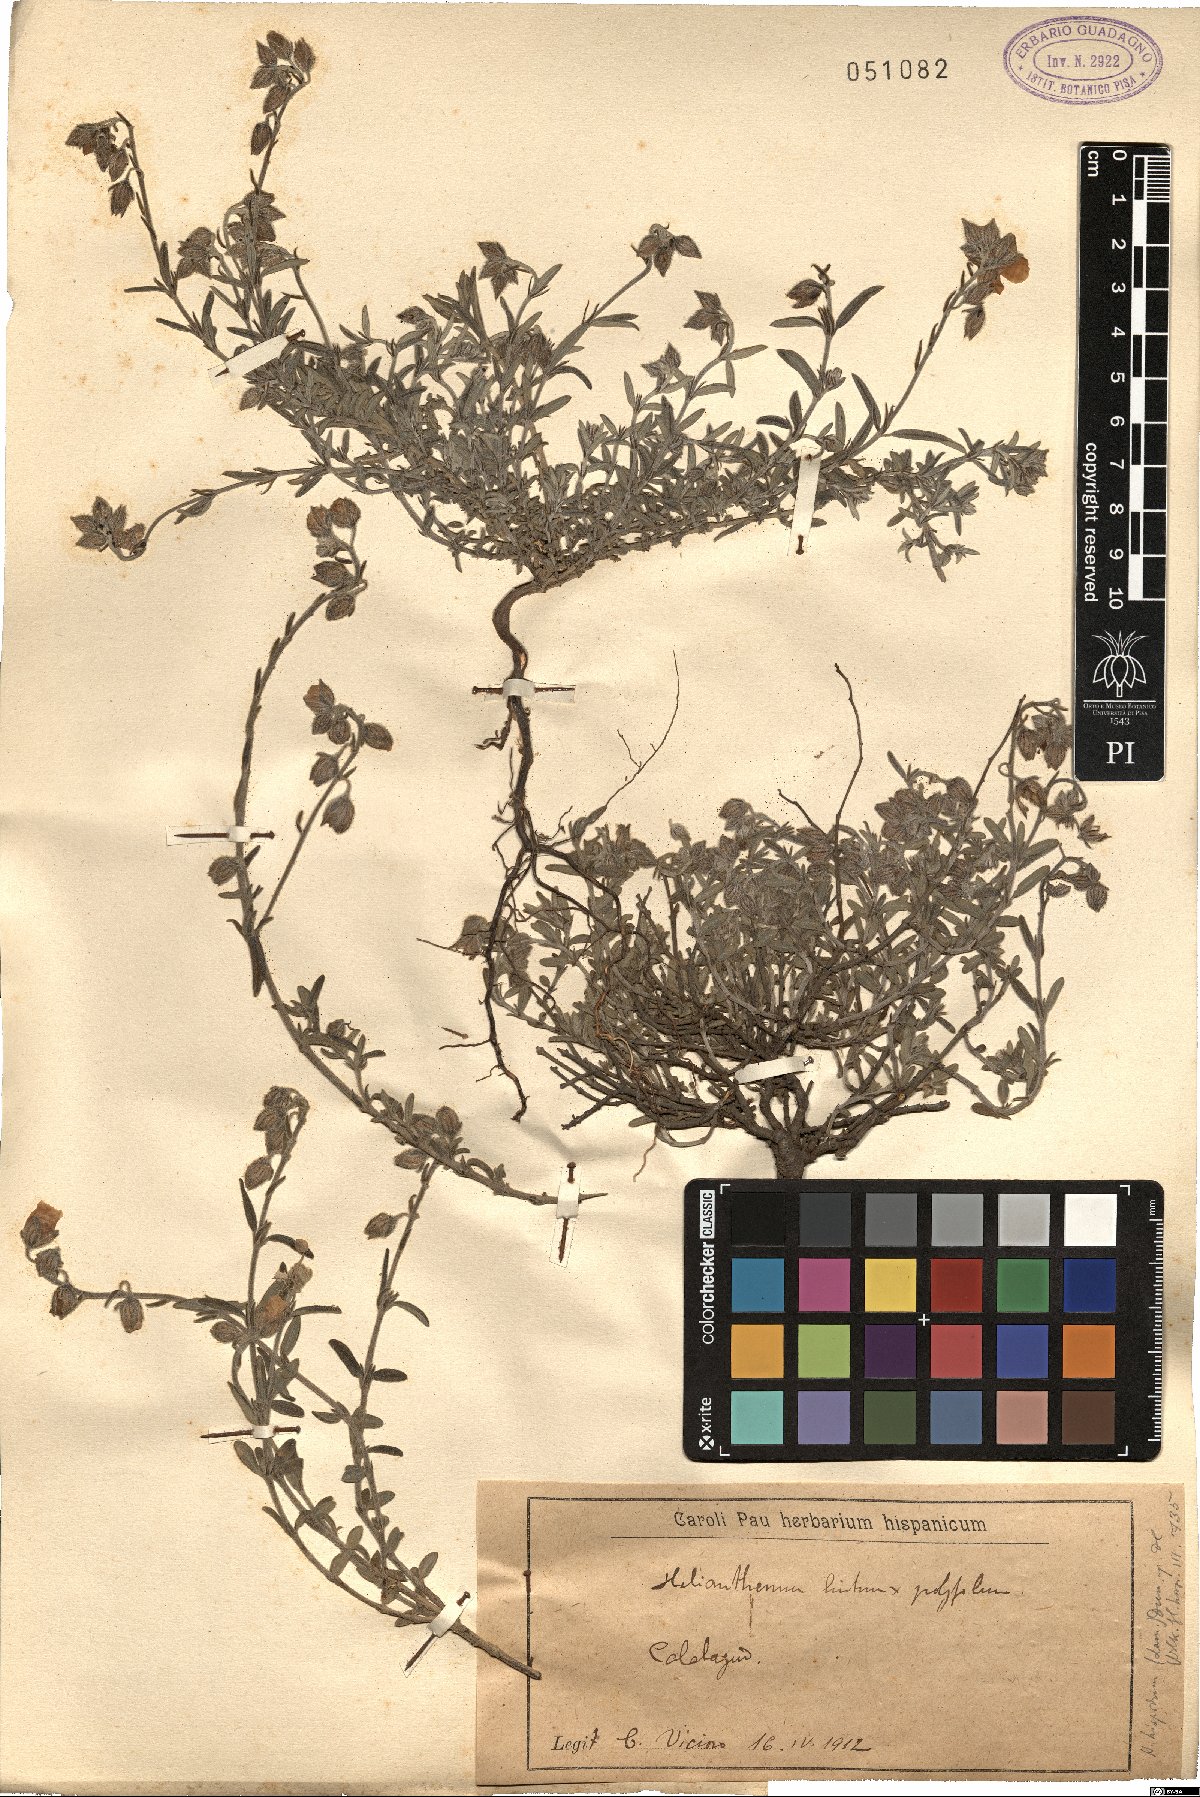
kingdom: Plantae
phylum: Tracheophyta
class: Magnoliopsida
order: Malvales
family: Cistaceae
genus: Helianthemum
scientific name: Helianthemum hispidum
